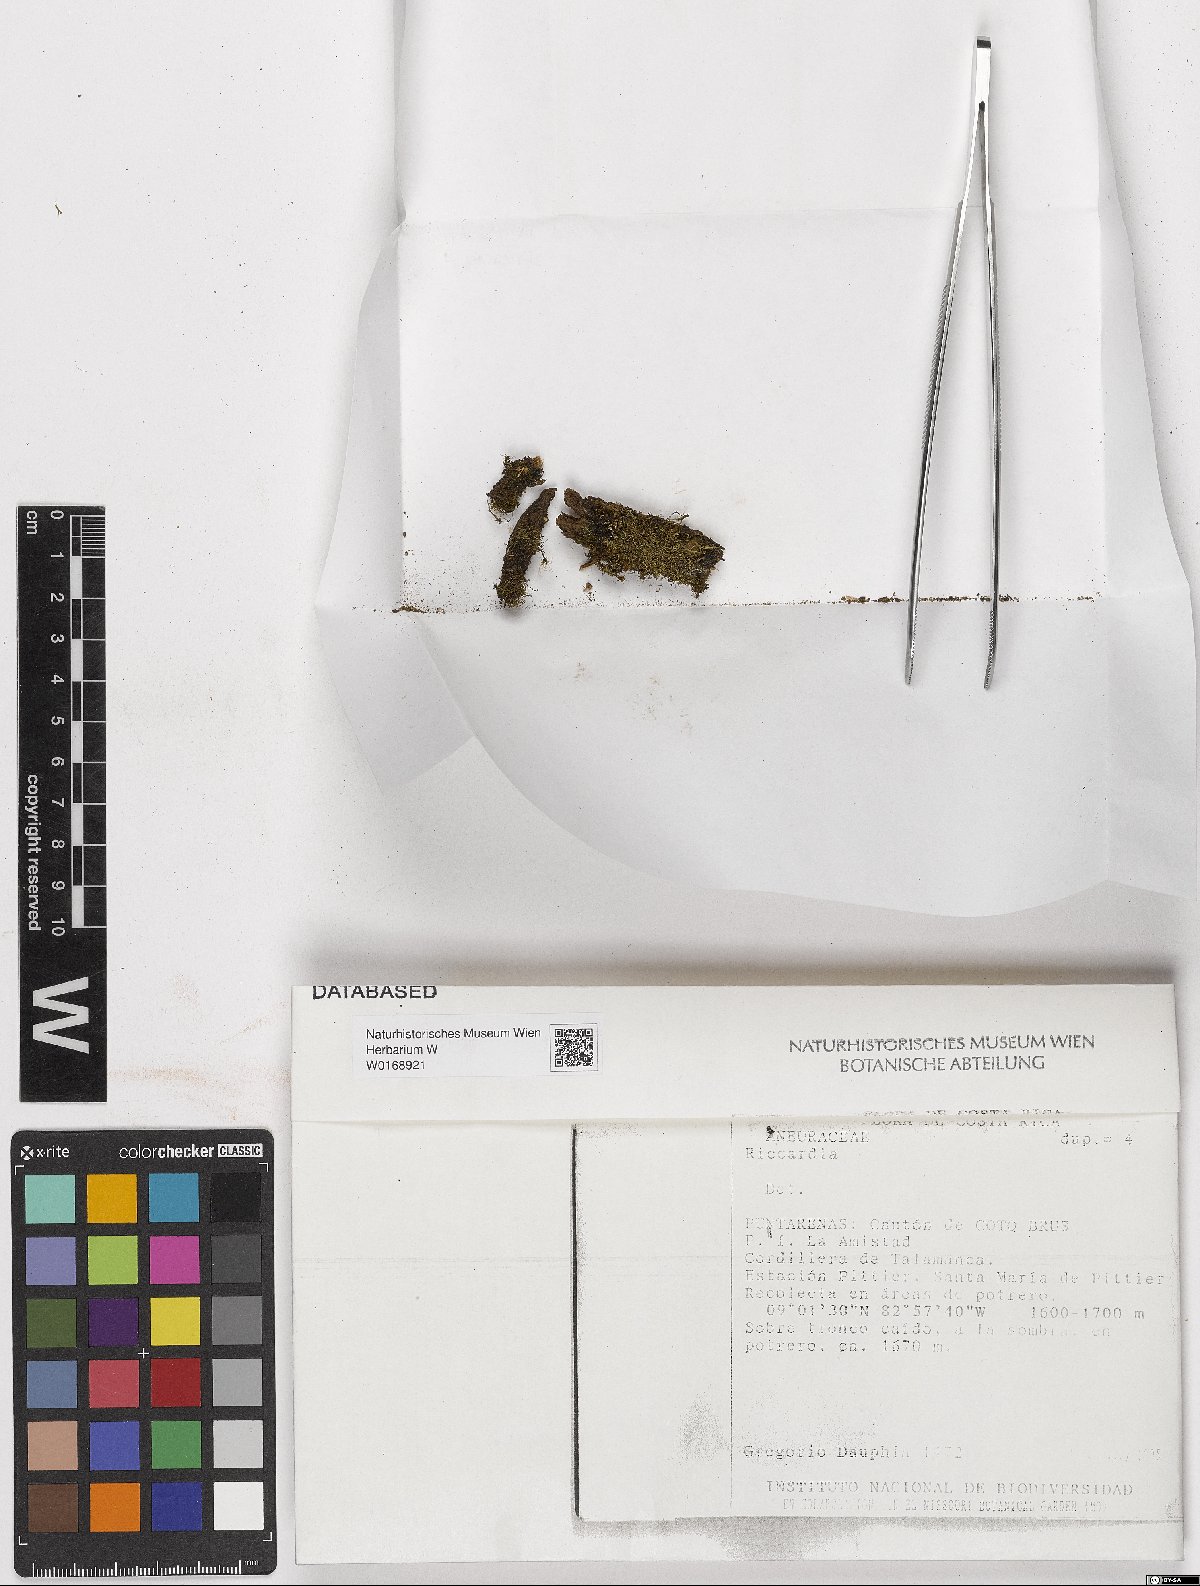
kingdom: Plantae
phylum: Marchantiophyta
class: Jungermanniopsida
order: Metzgeriales
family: Aneuraceae
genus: Riccardia
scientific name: Riccardia
